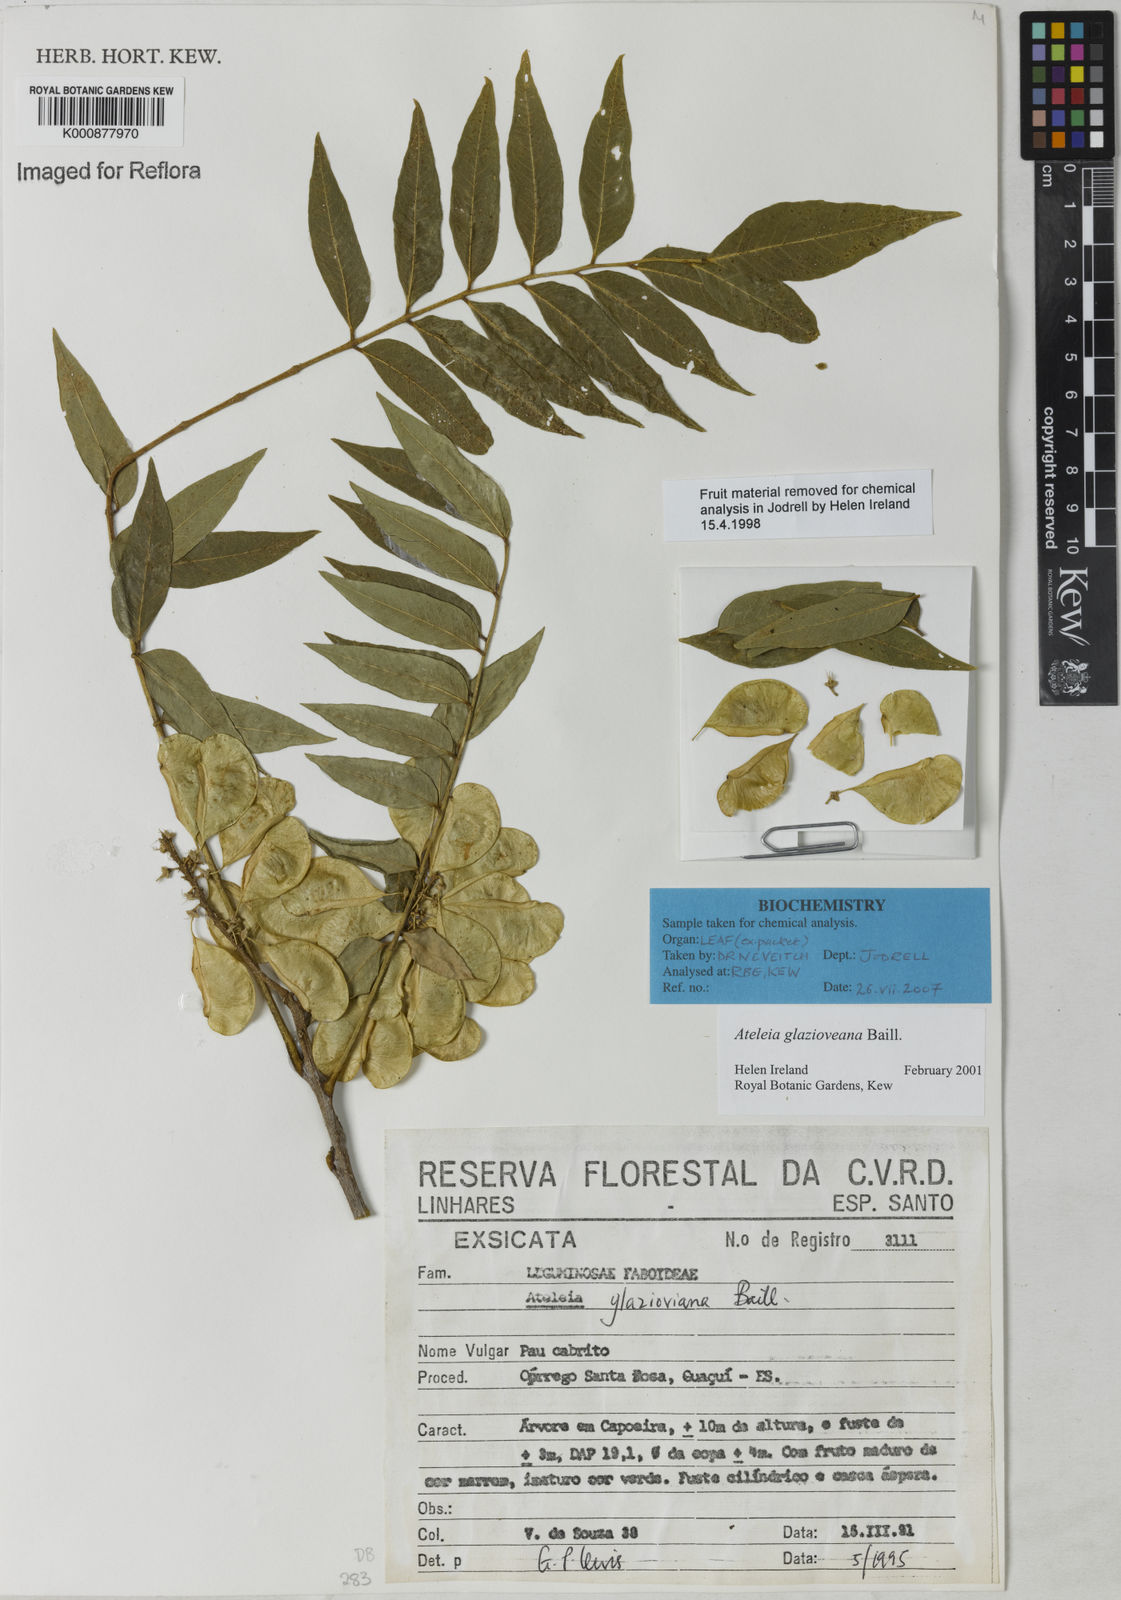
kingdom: Plantae
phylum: Tracheophyta
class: Magnoliopsida
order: Fabales
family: Fabaceae
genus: Ateleia
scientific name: Ateleia glazioveana
